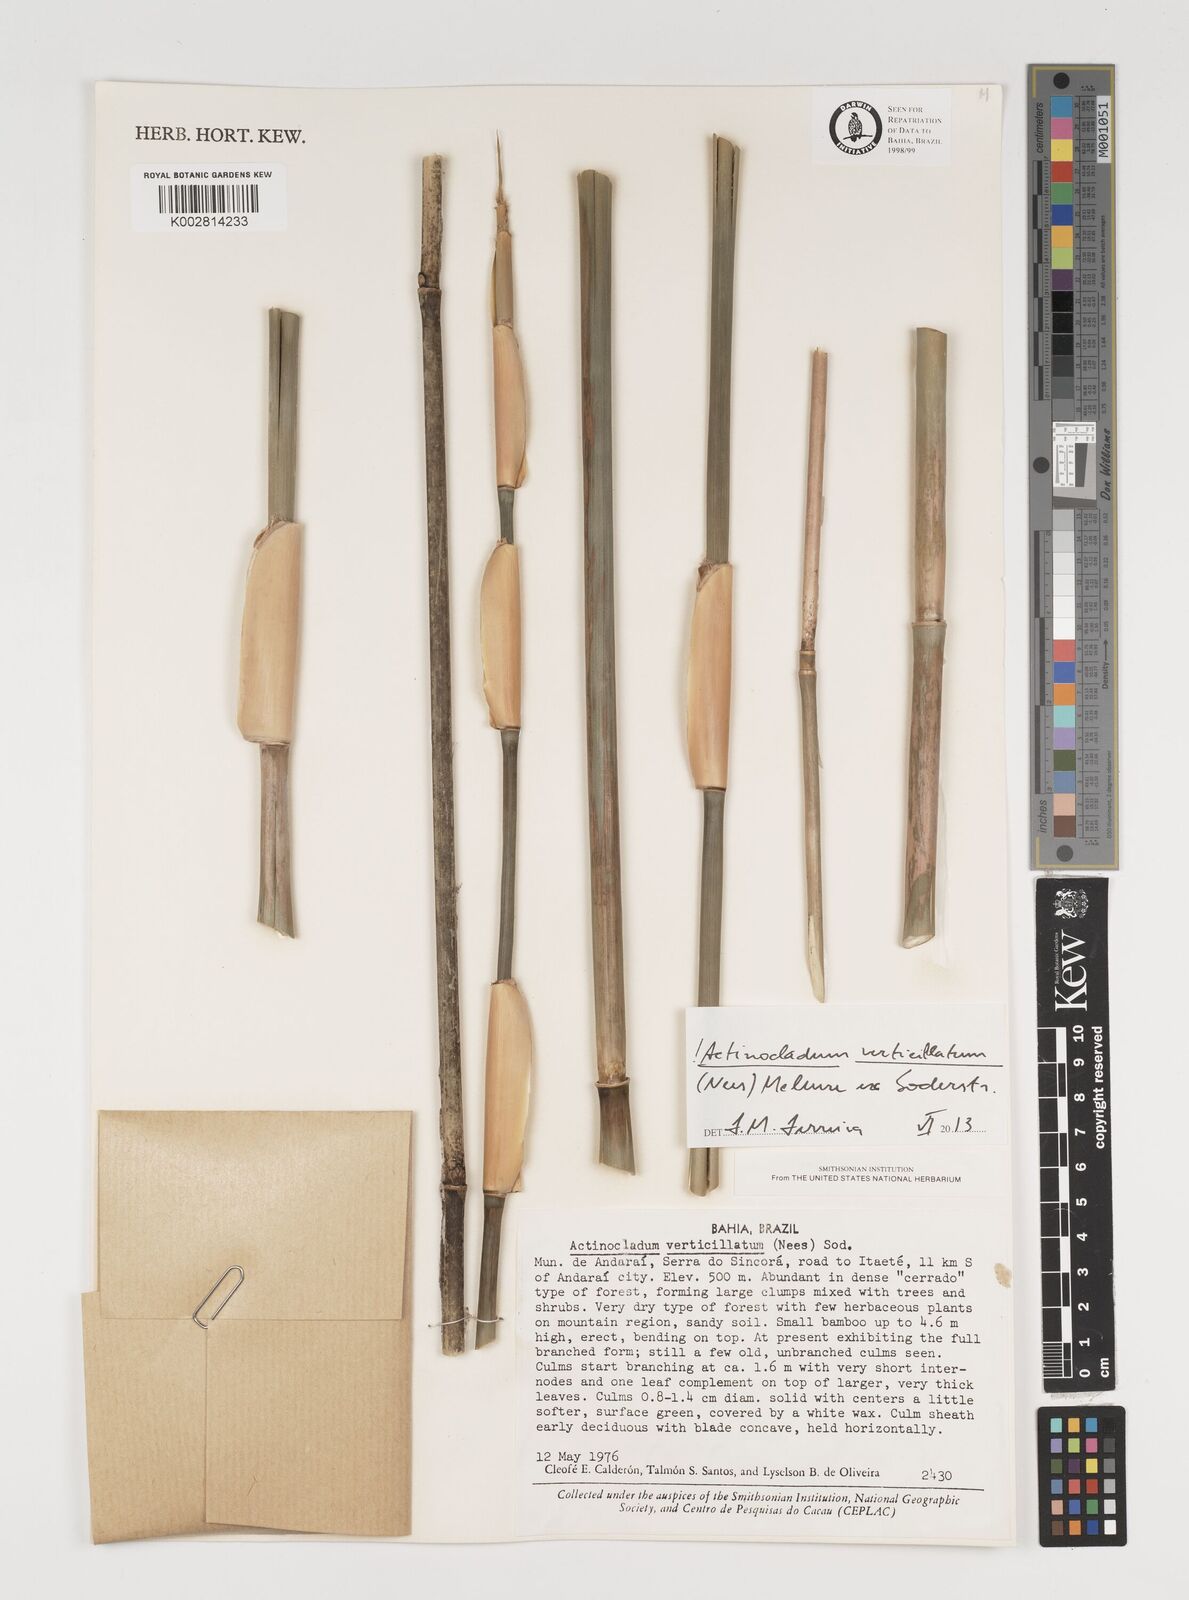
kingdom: Plantae
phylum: Tracheophyta
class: Liliopsida
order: Poales
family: Poaceae
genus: Actinocladum
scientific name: Actinocladum verticillatum
